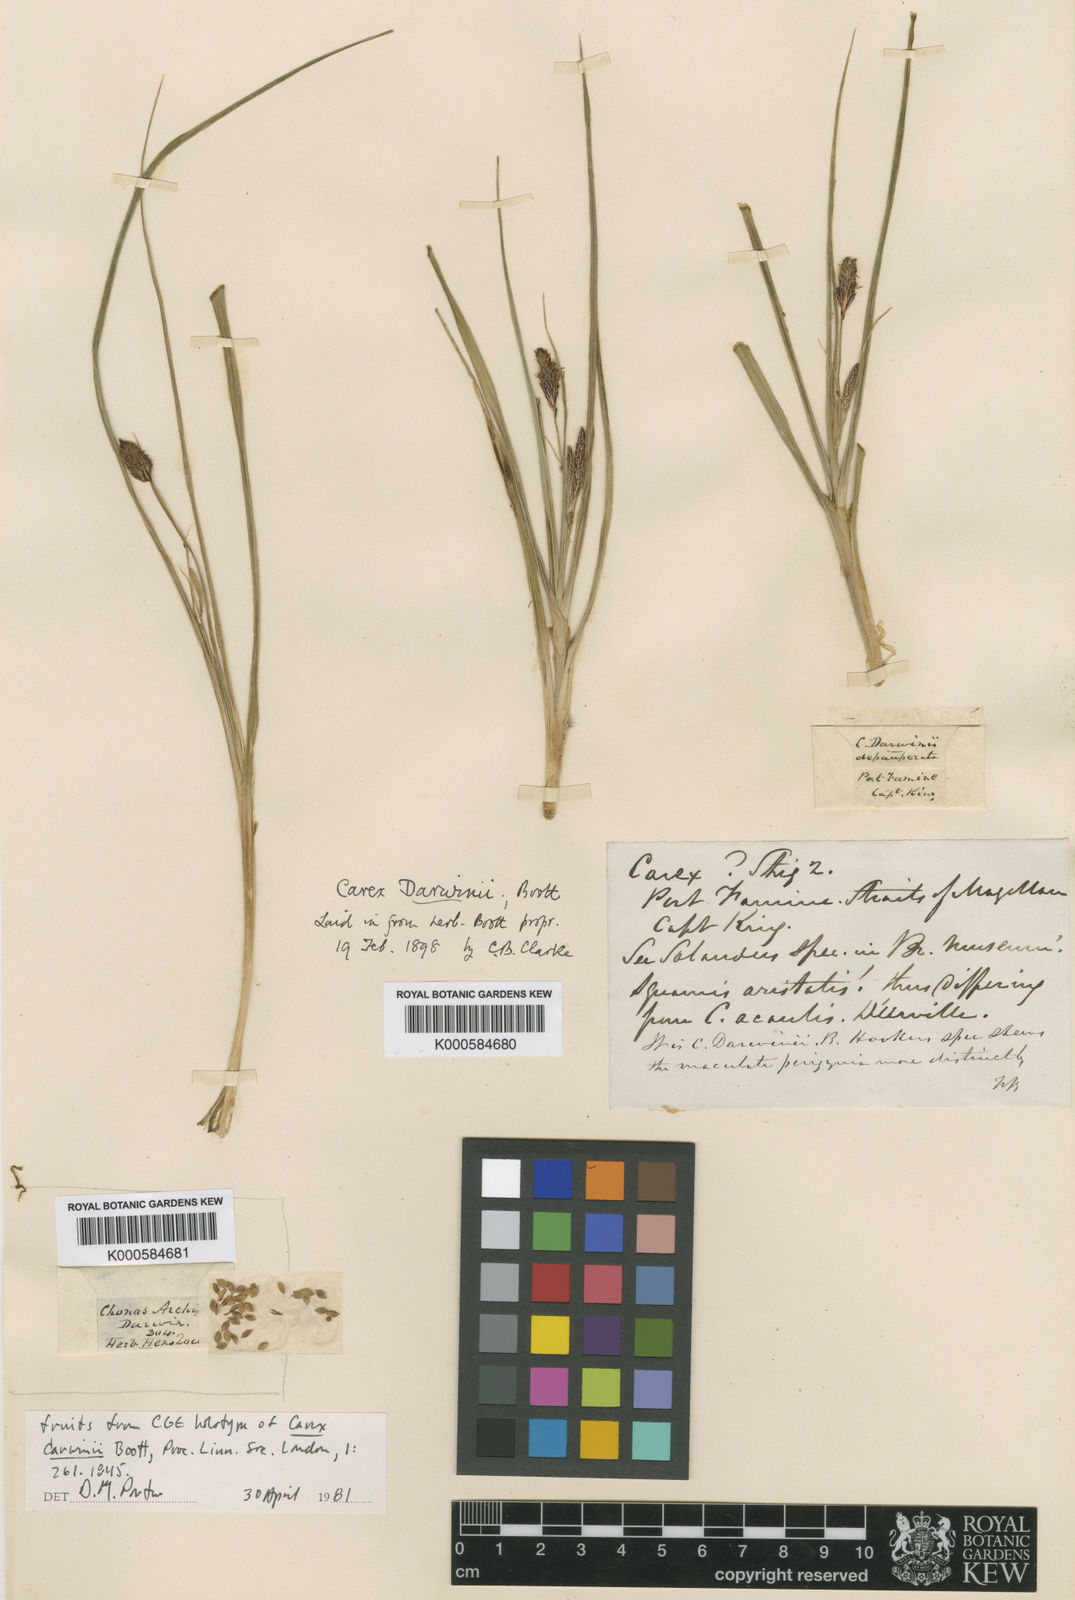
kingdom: Plantae
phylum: Tracheophyta
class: Liliopsida
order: Poales
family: Cyperaceae
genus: Carex
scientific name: Carex darwinii
